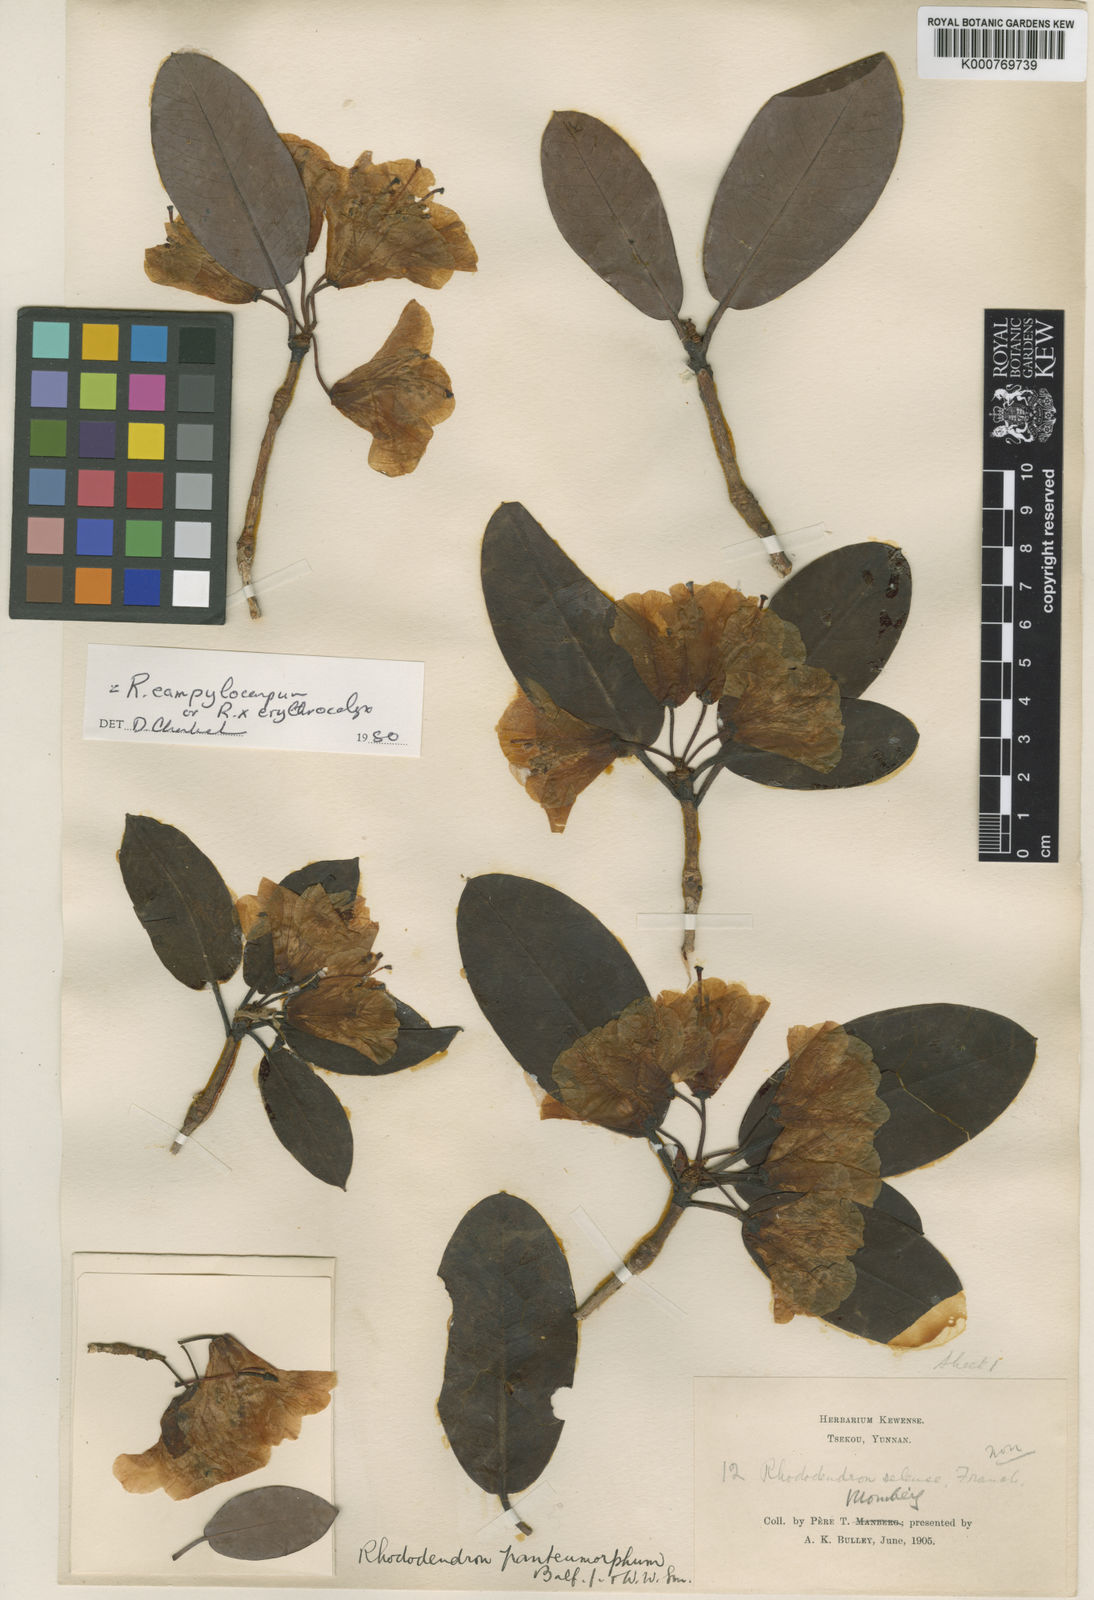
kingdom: Plantae
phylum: Tracheophyta
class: Magnoliopsida
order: Ericales
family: Ericaceae
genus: Rhododendron
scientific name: Rhododendron erythrocalyx
